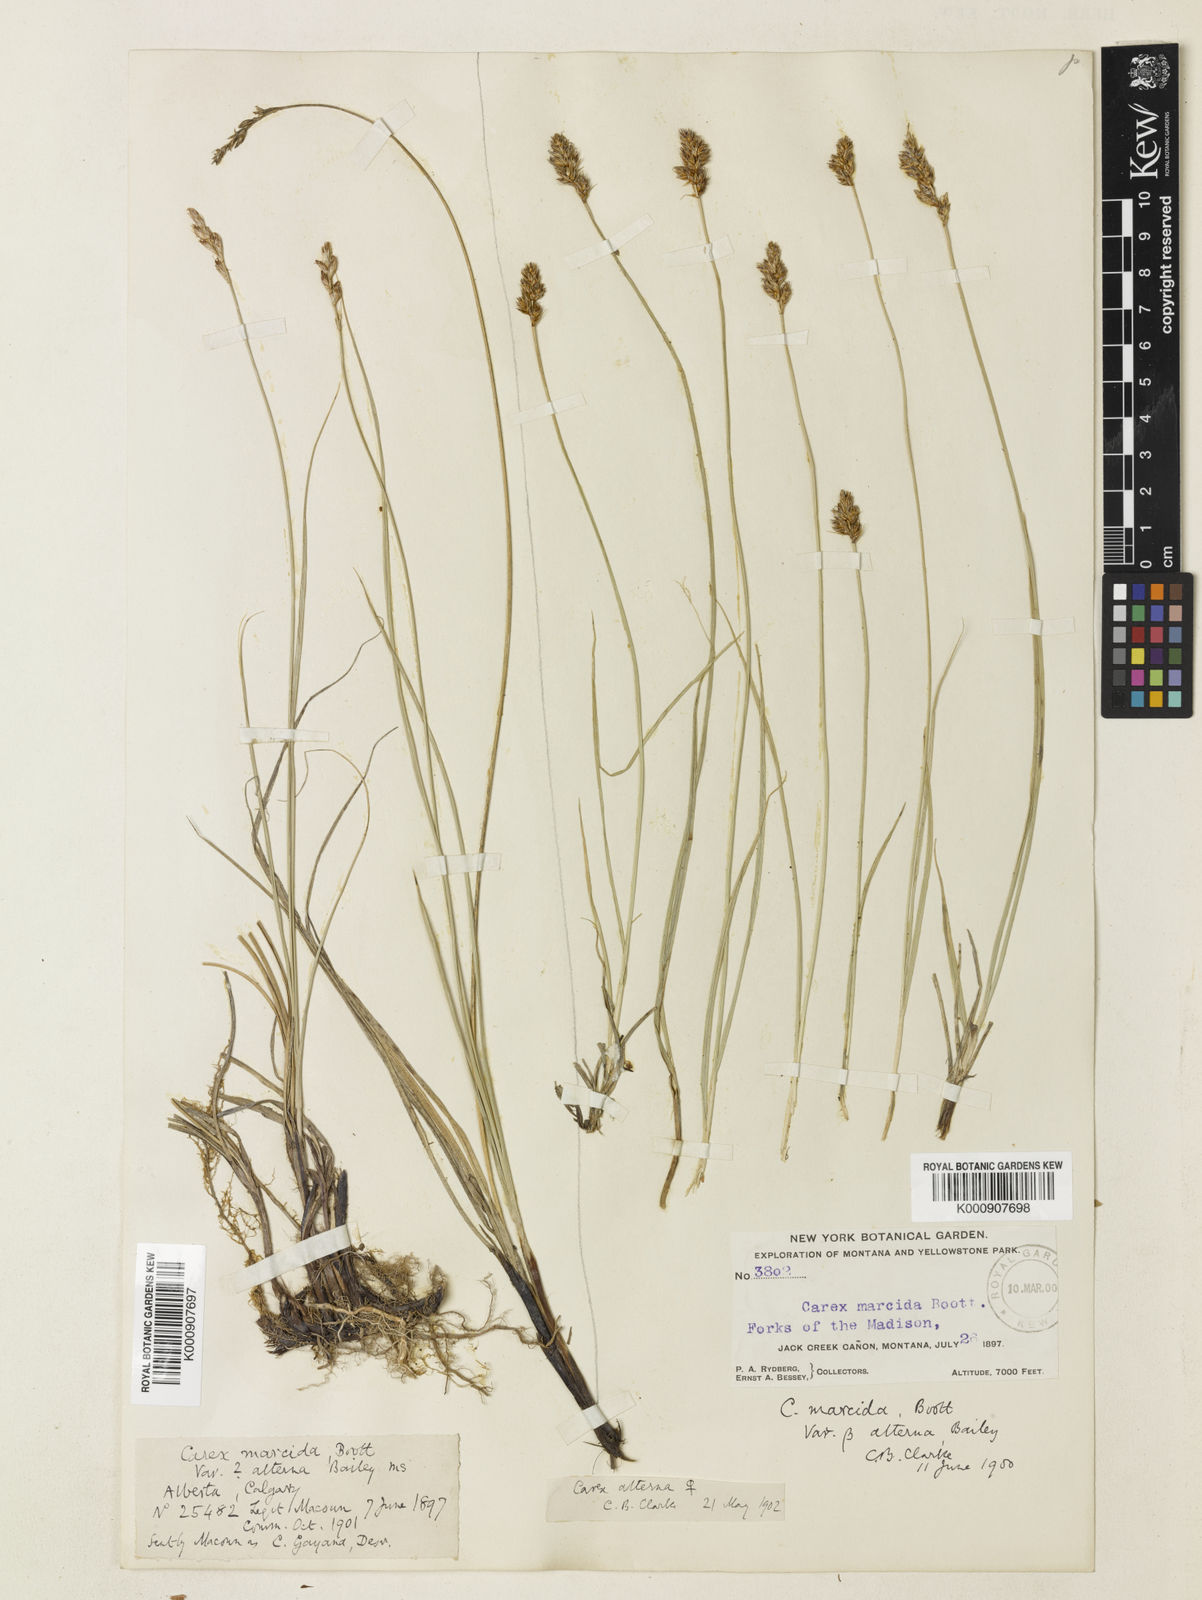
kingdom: Plantae
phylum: Tracheophyta
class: Liliopsida
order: Poales
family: Cyperaceae
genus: Carex
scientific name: Carex praegracilis
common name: Black creeper sedge
